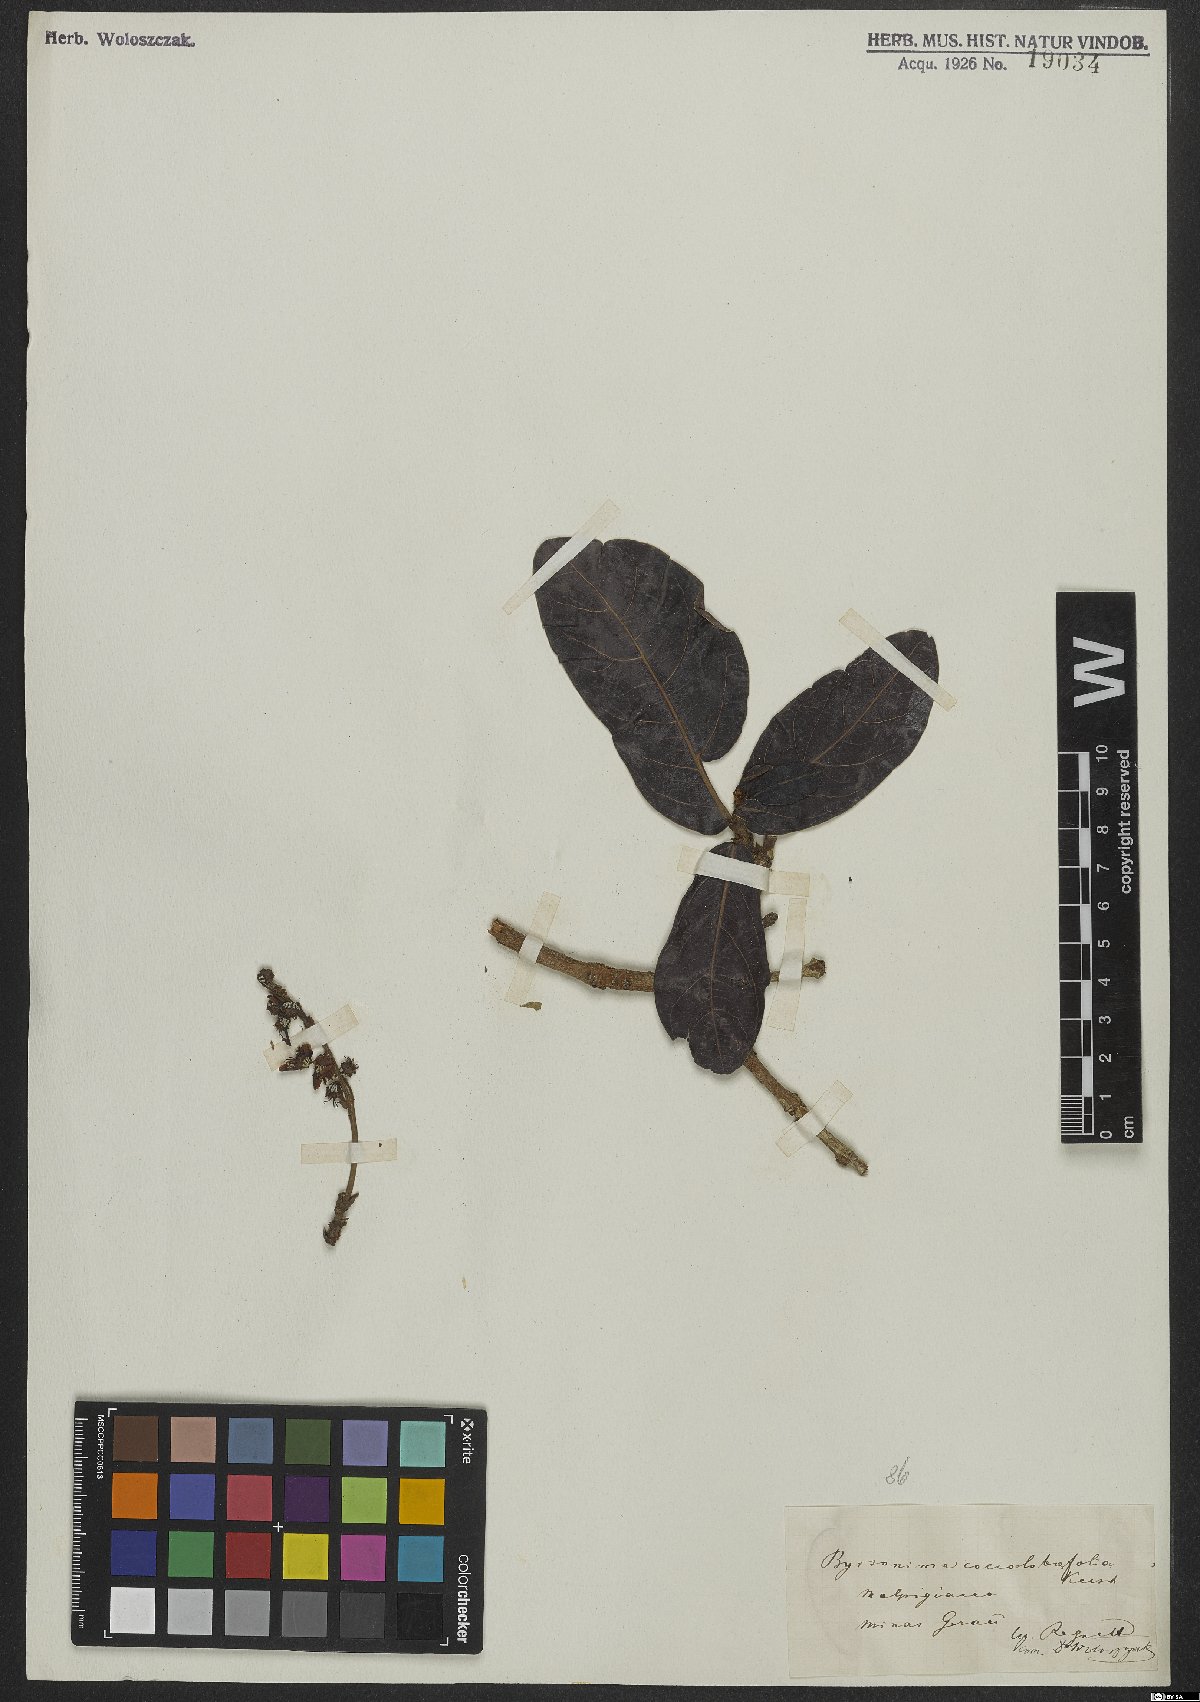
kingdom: Plantae
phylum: Tracheophyta
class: Magnoliopsida
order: Malpighiales
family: Malpighiaceae
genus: Byrsonima
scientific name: Byrsonima coccolobifolia
